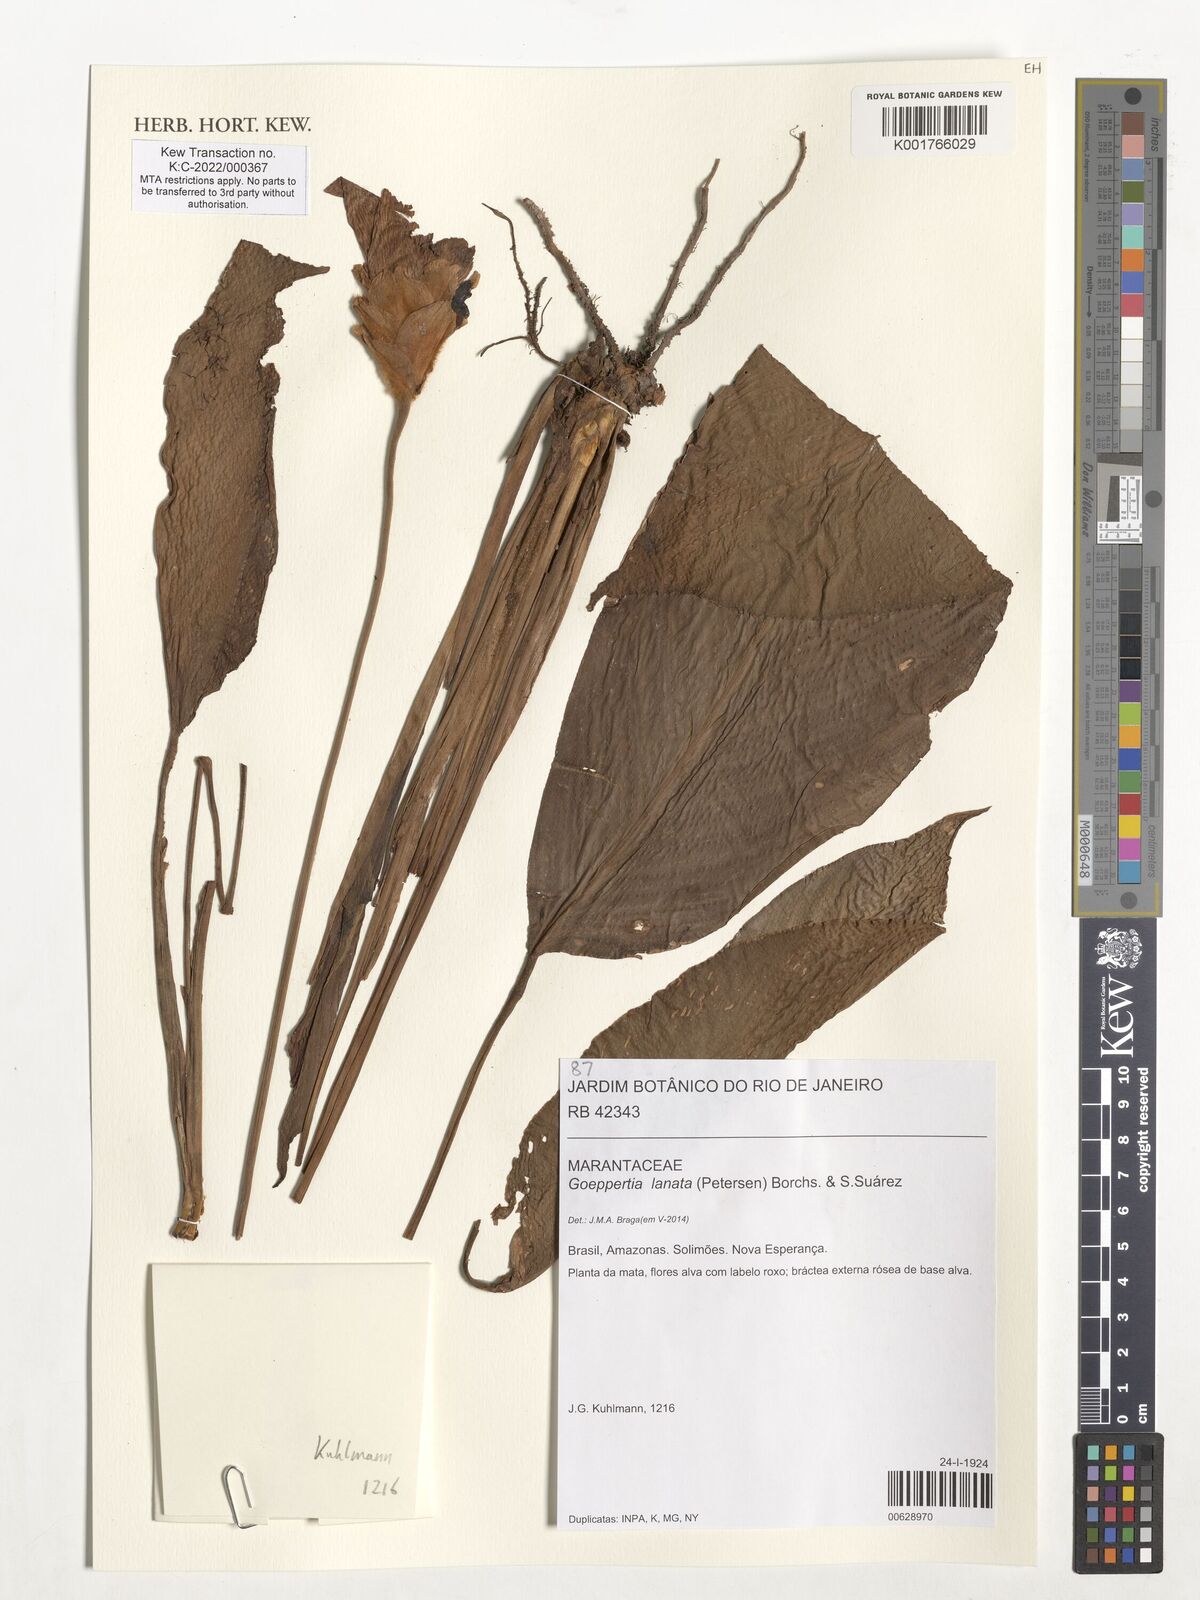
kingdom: Plantae
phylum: Tracheophyta
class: Liliopsida
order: Zingiberales
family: Marantaceae
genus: Goeppertia
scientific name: Goeppertia lanata
